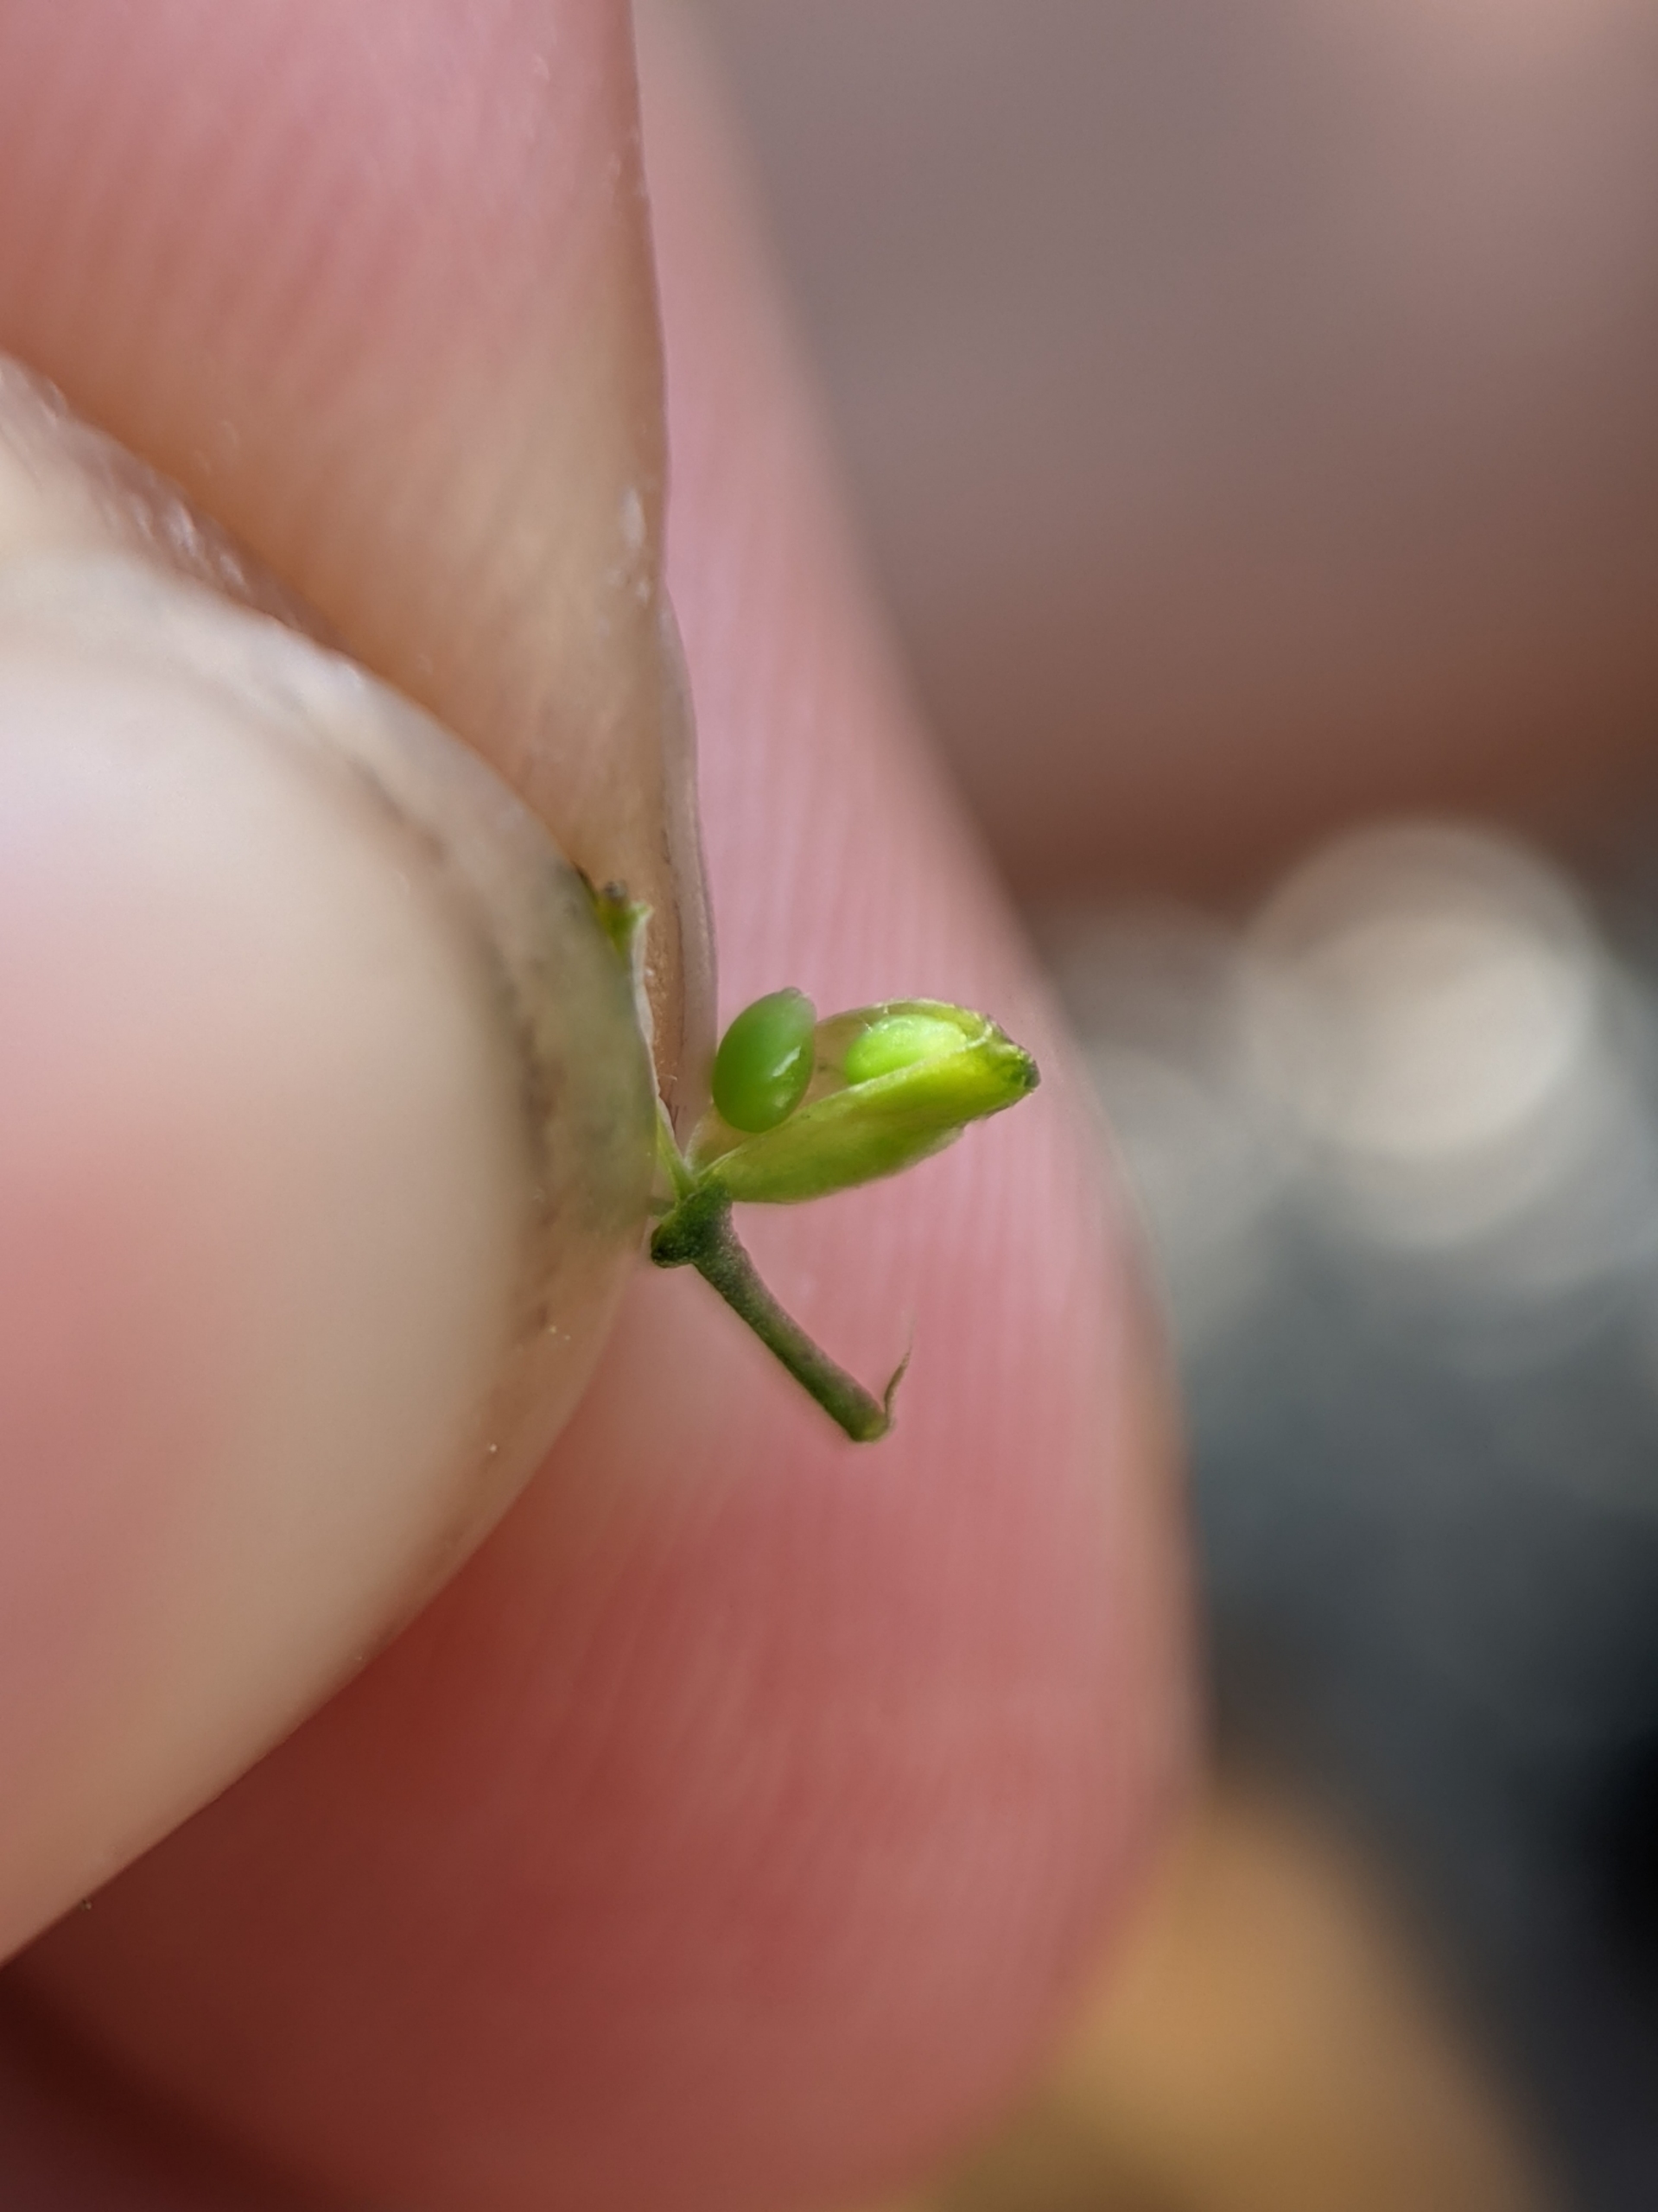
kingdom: Plantae
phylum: Tracheophyta
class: Magnoliopsida
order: Brassicales
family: Brassicaceae
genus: Teesdalia
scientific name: Teesdalia nudicaulis
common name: Flipkrave
